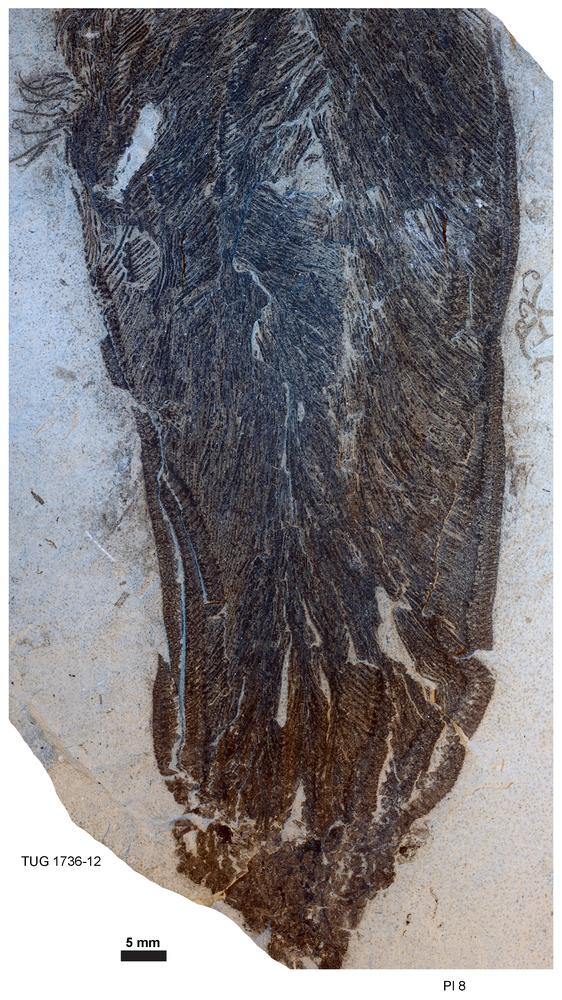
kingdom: Animalia
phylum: Echinodermata
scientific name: Echinodermata
